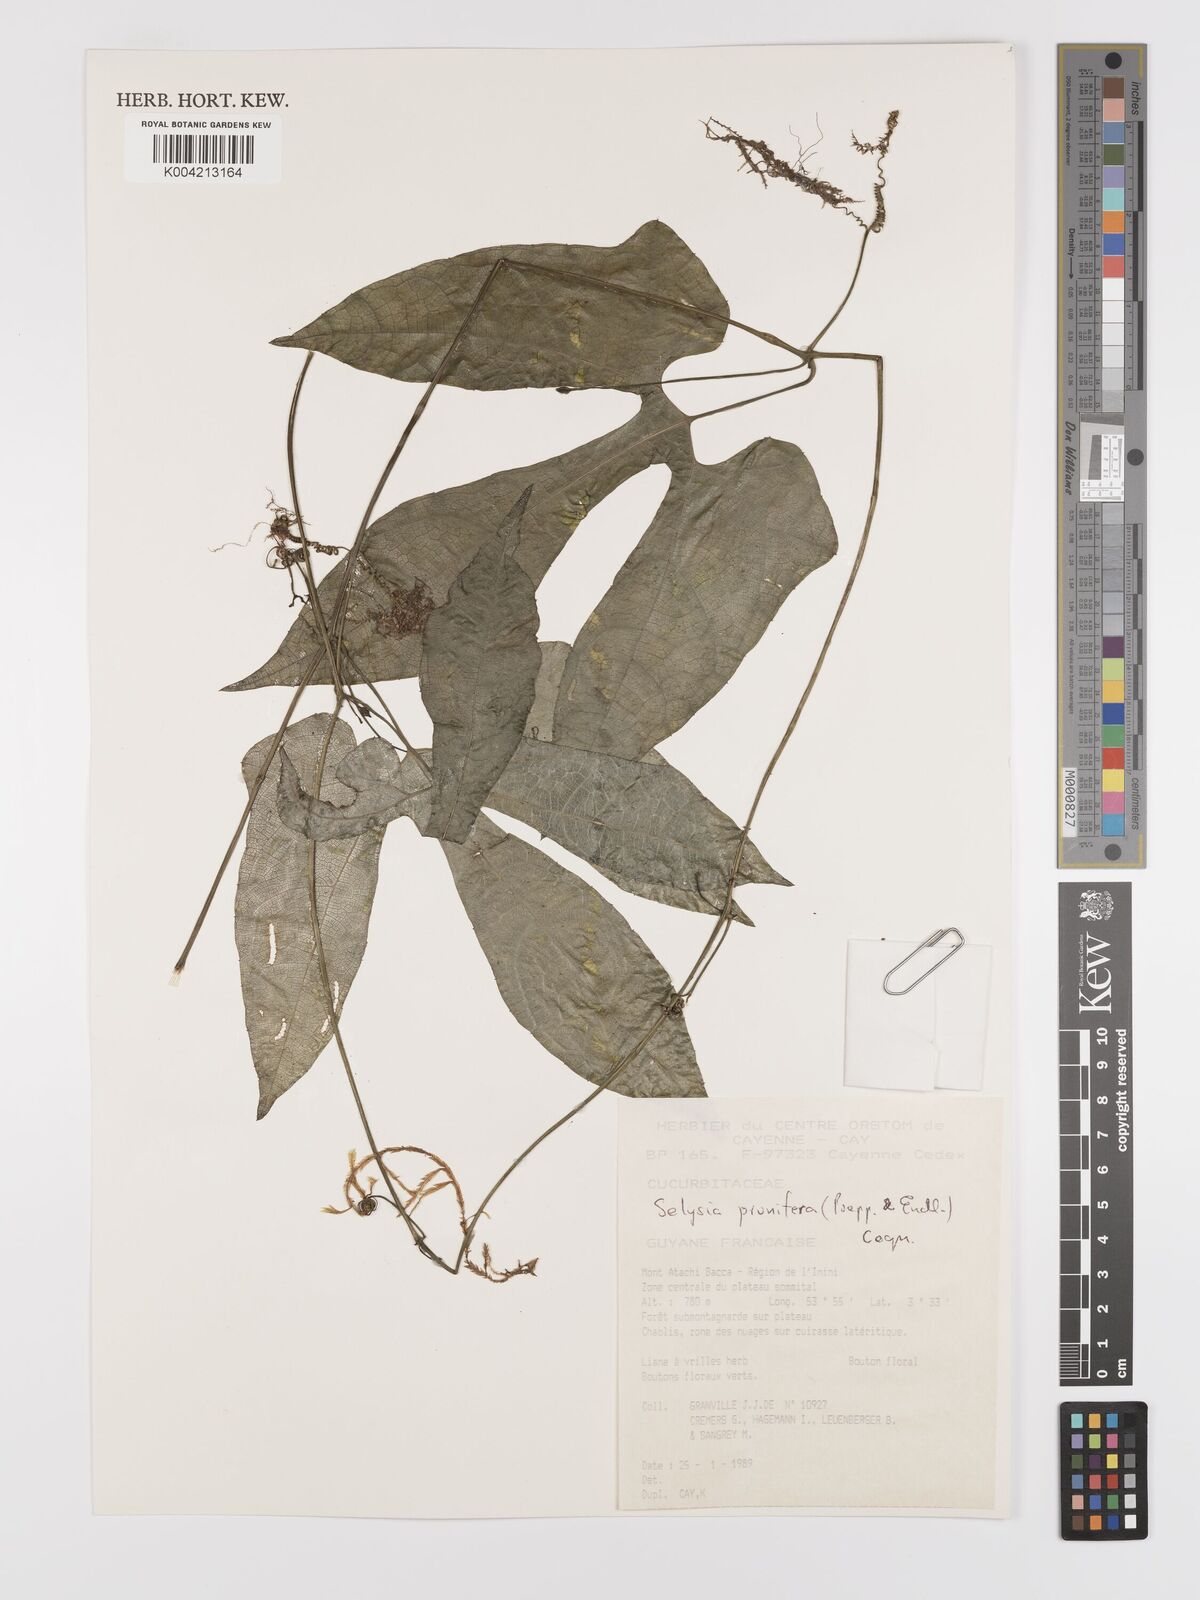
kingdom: Plantae
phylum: Tracheophyta
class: Magnoliopsida
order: Cucurbitales
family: Cucurbitaceae
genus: Cayaponia
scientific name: Cayaponia prunifera
